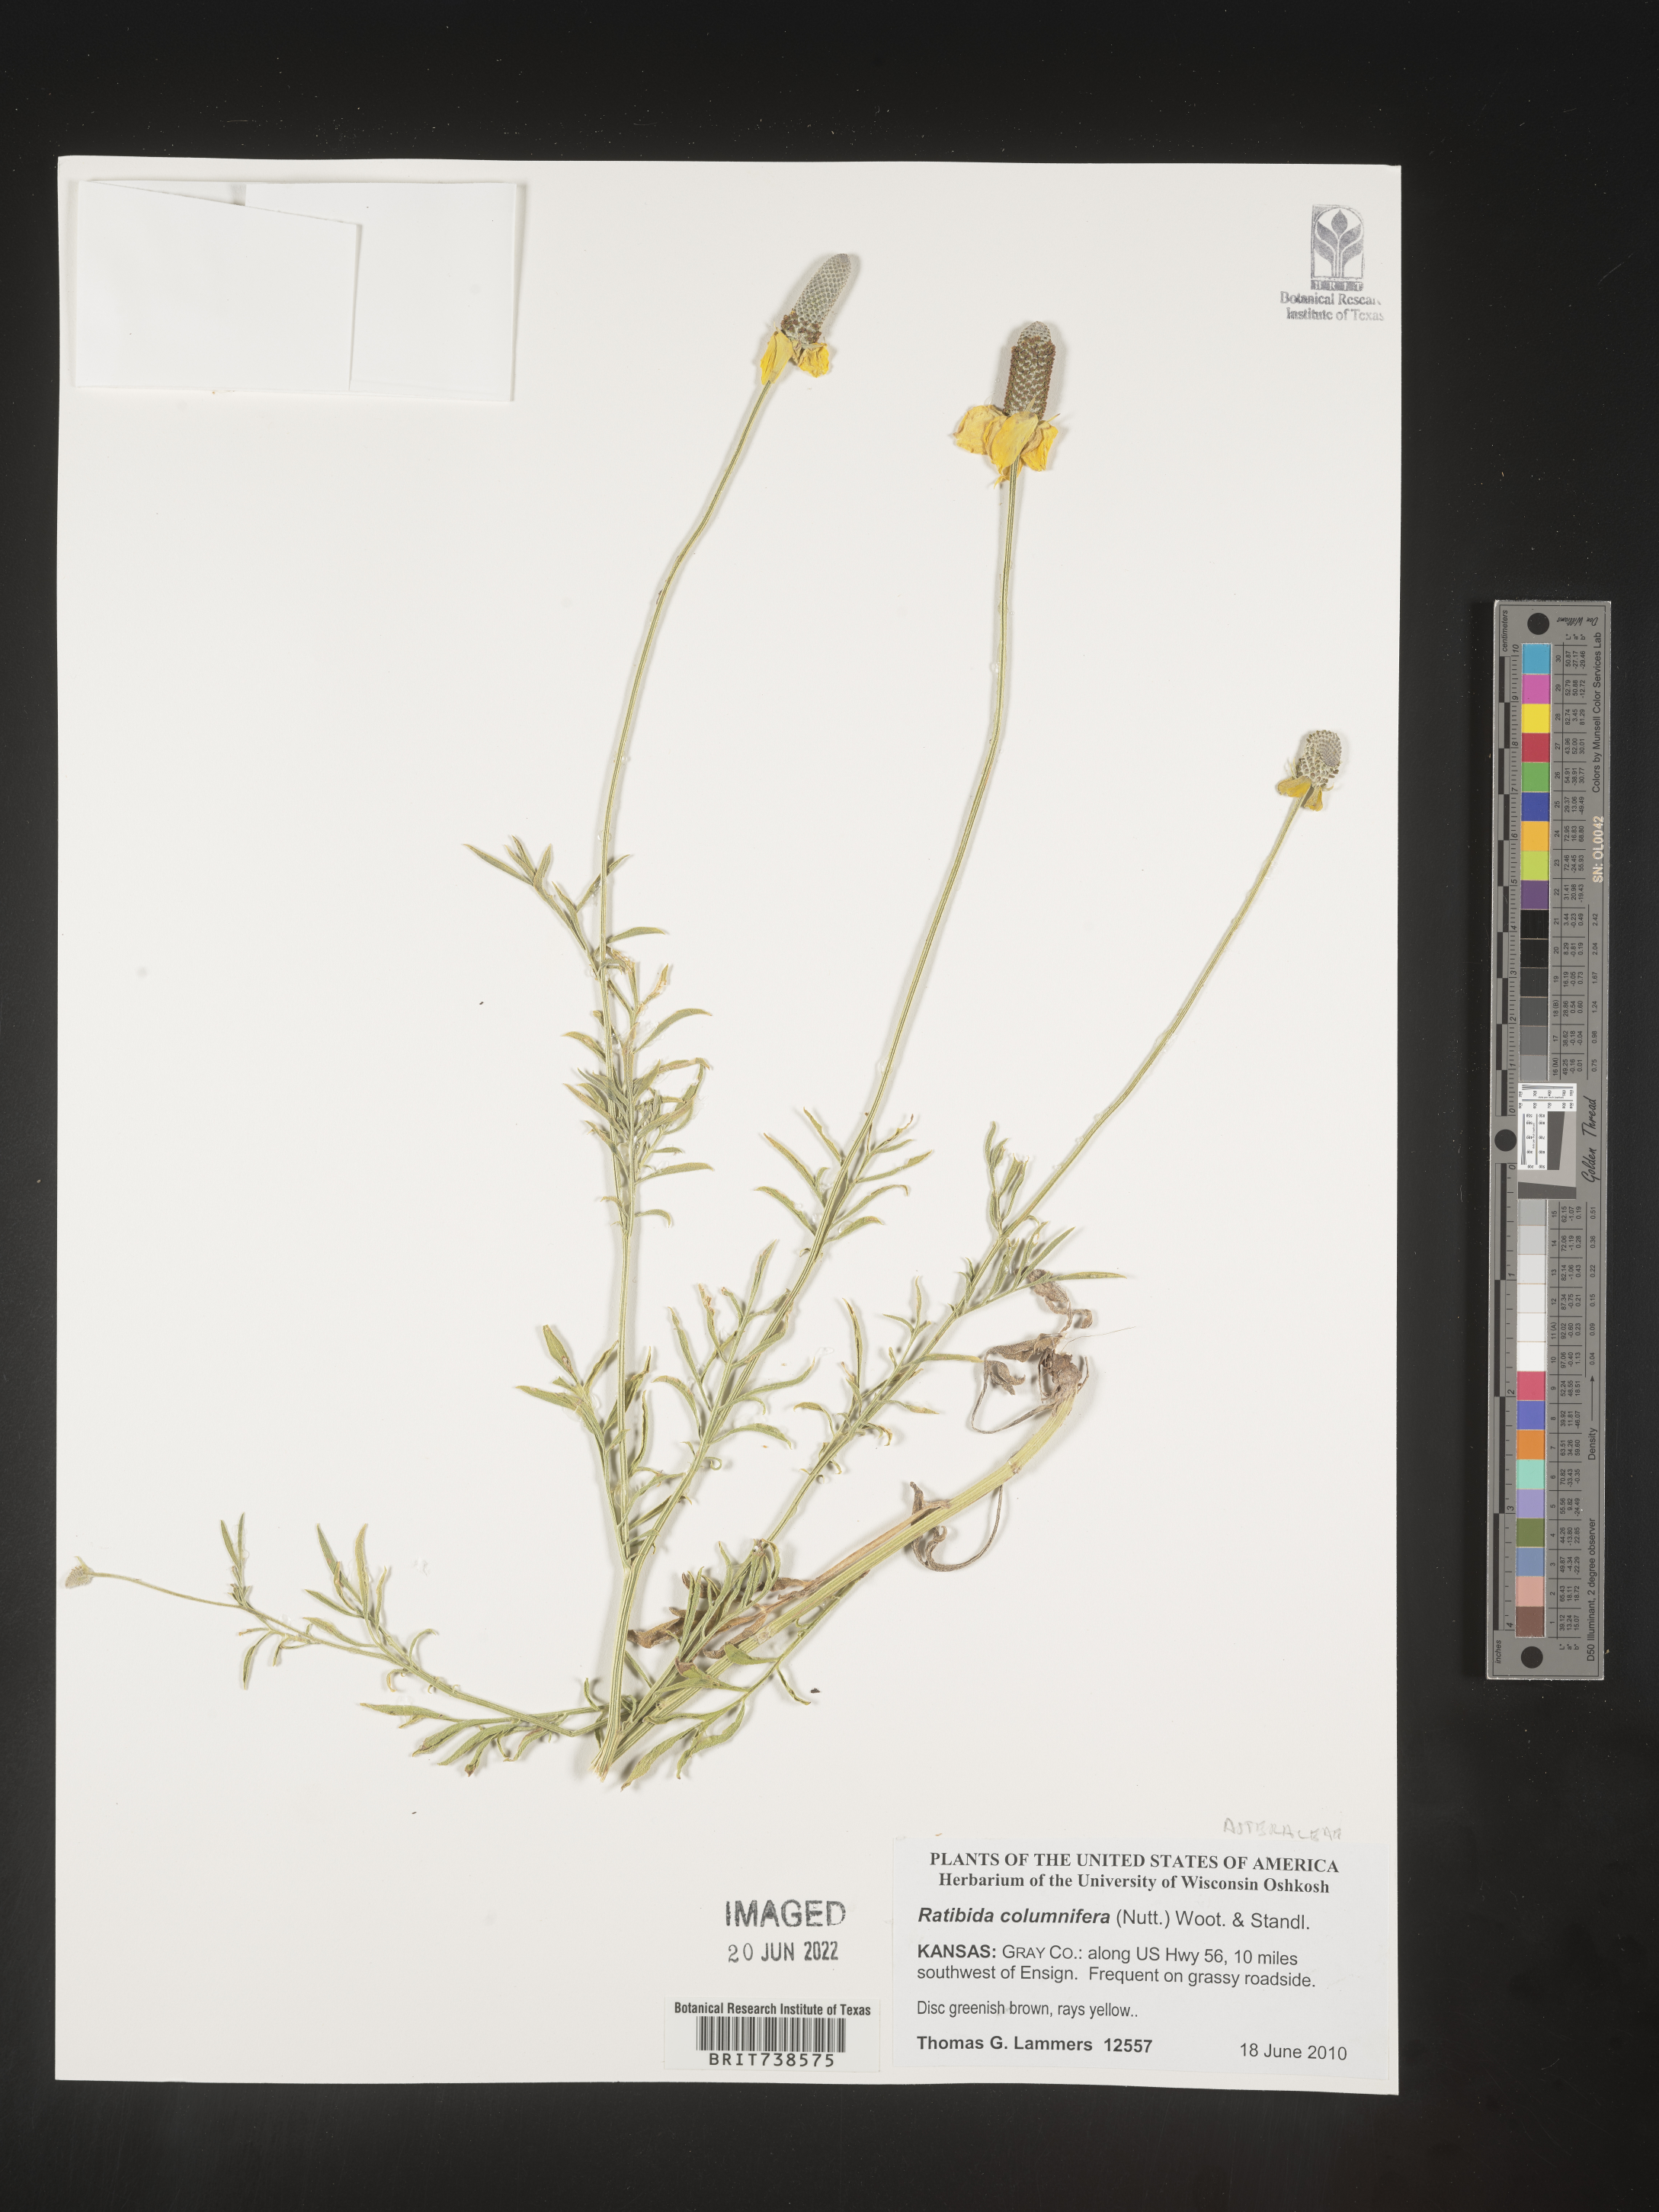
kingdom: Plantae
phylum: Tracheophyta
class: Magnoliopsida
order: Asterales
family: Asteraceae
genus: Ratibida
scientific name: Ratibida columnifera
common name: Prairie coneflower
